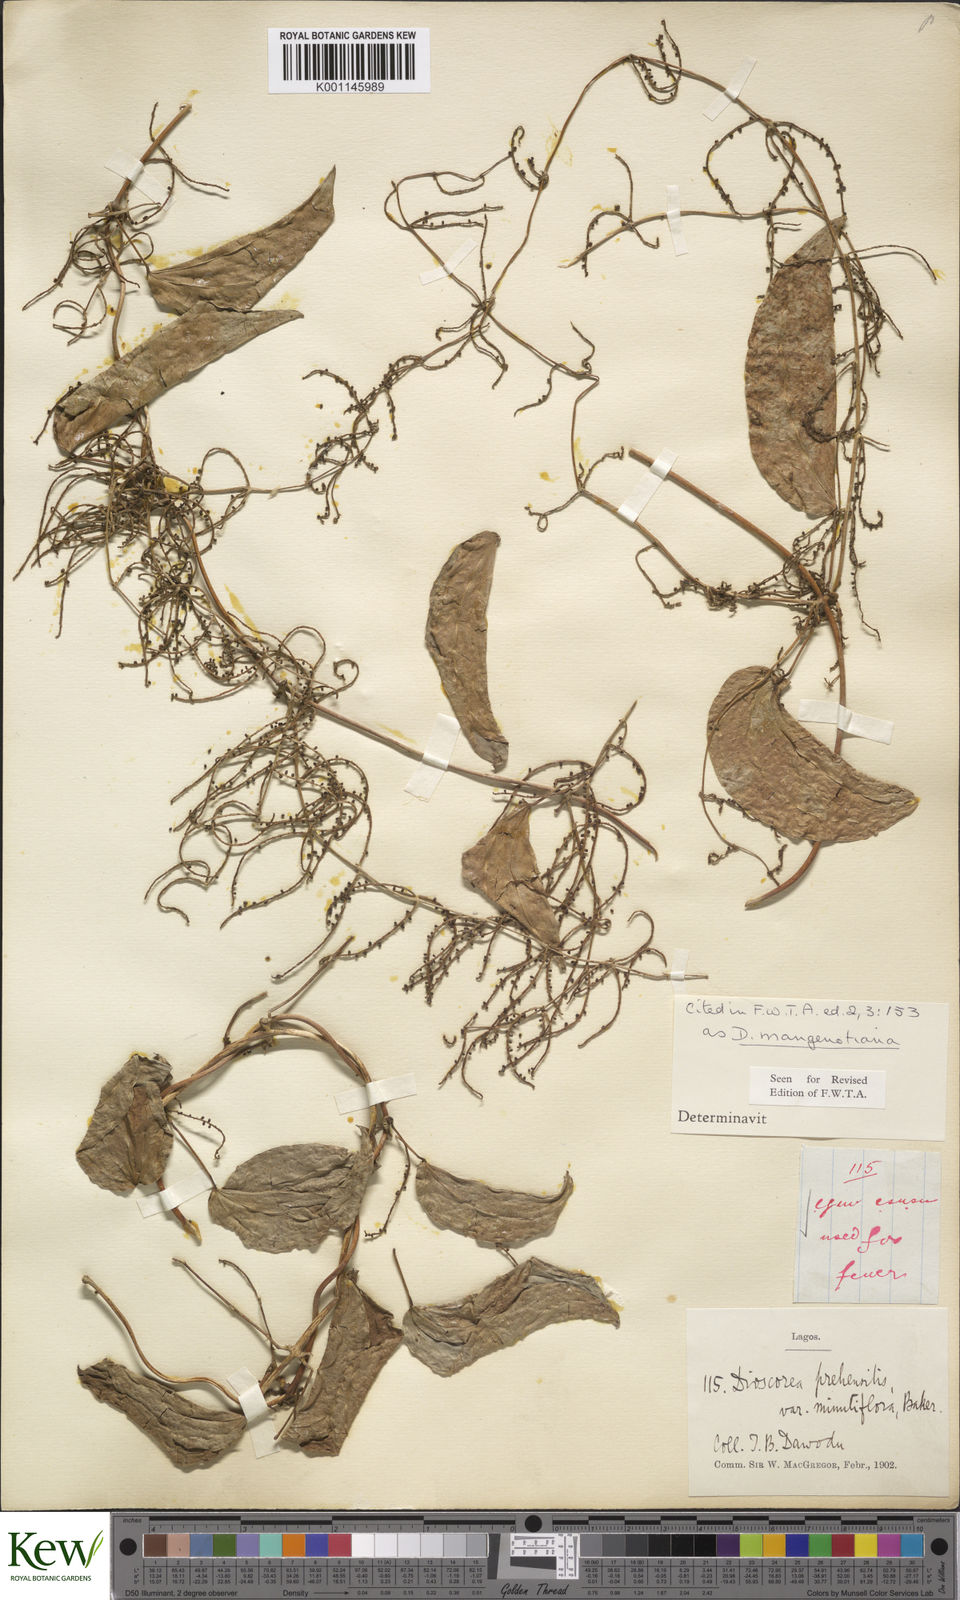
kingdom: Plantae
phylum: Tracheophyta
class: Liliopsida
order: Dioscoreales
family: Dioscoreaceae
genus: Dioscorea
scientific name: Dioscorea
